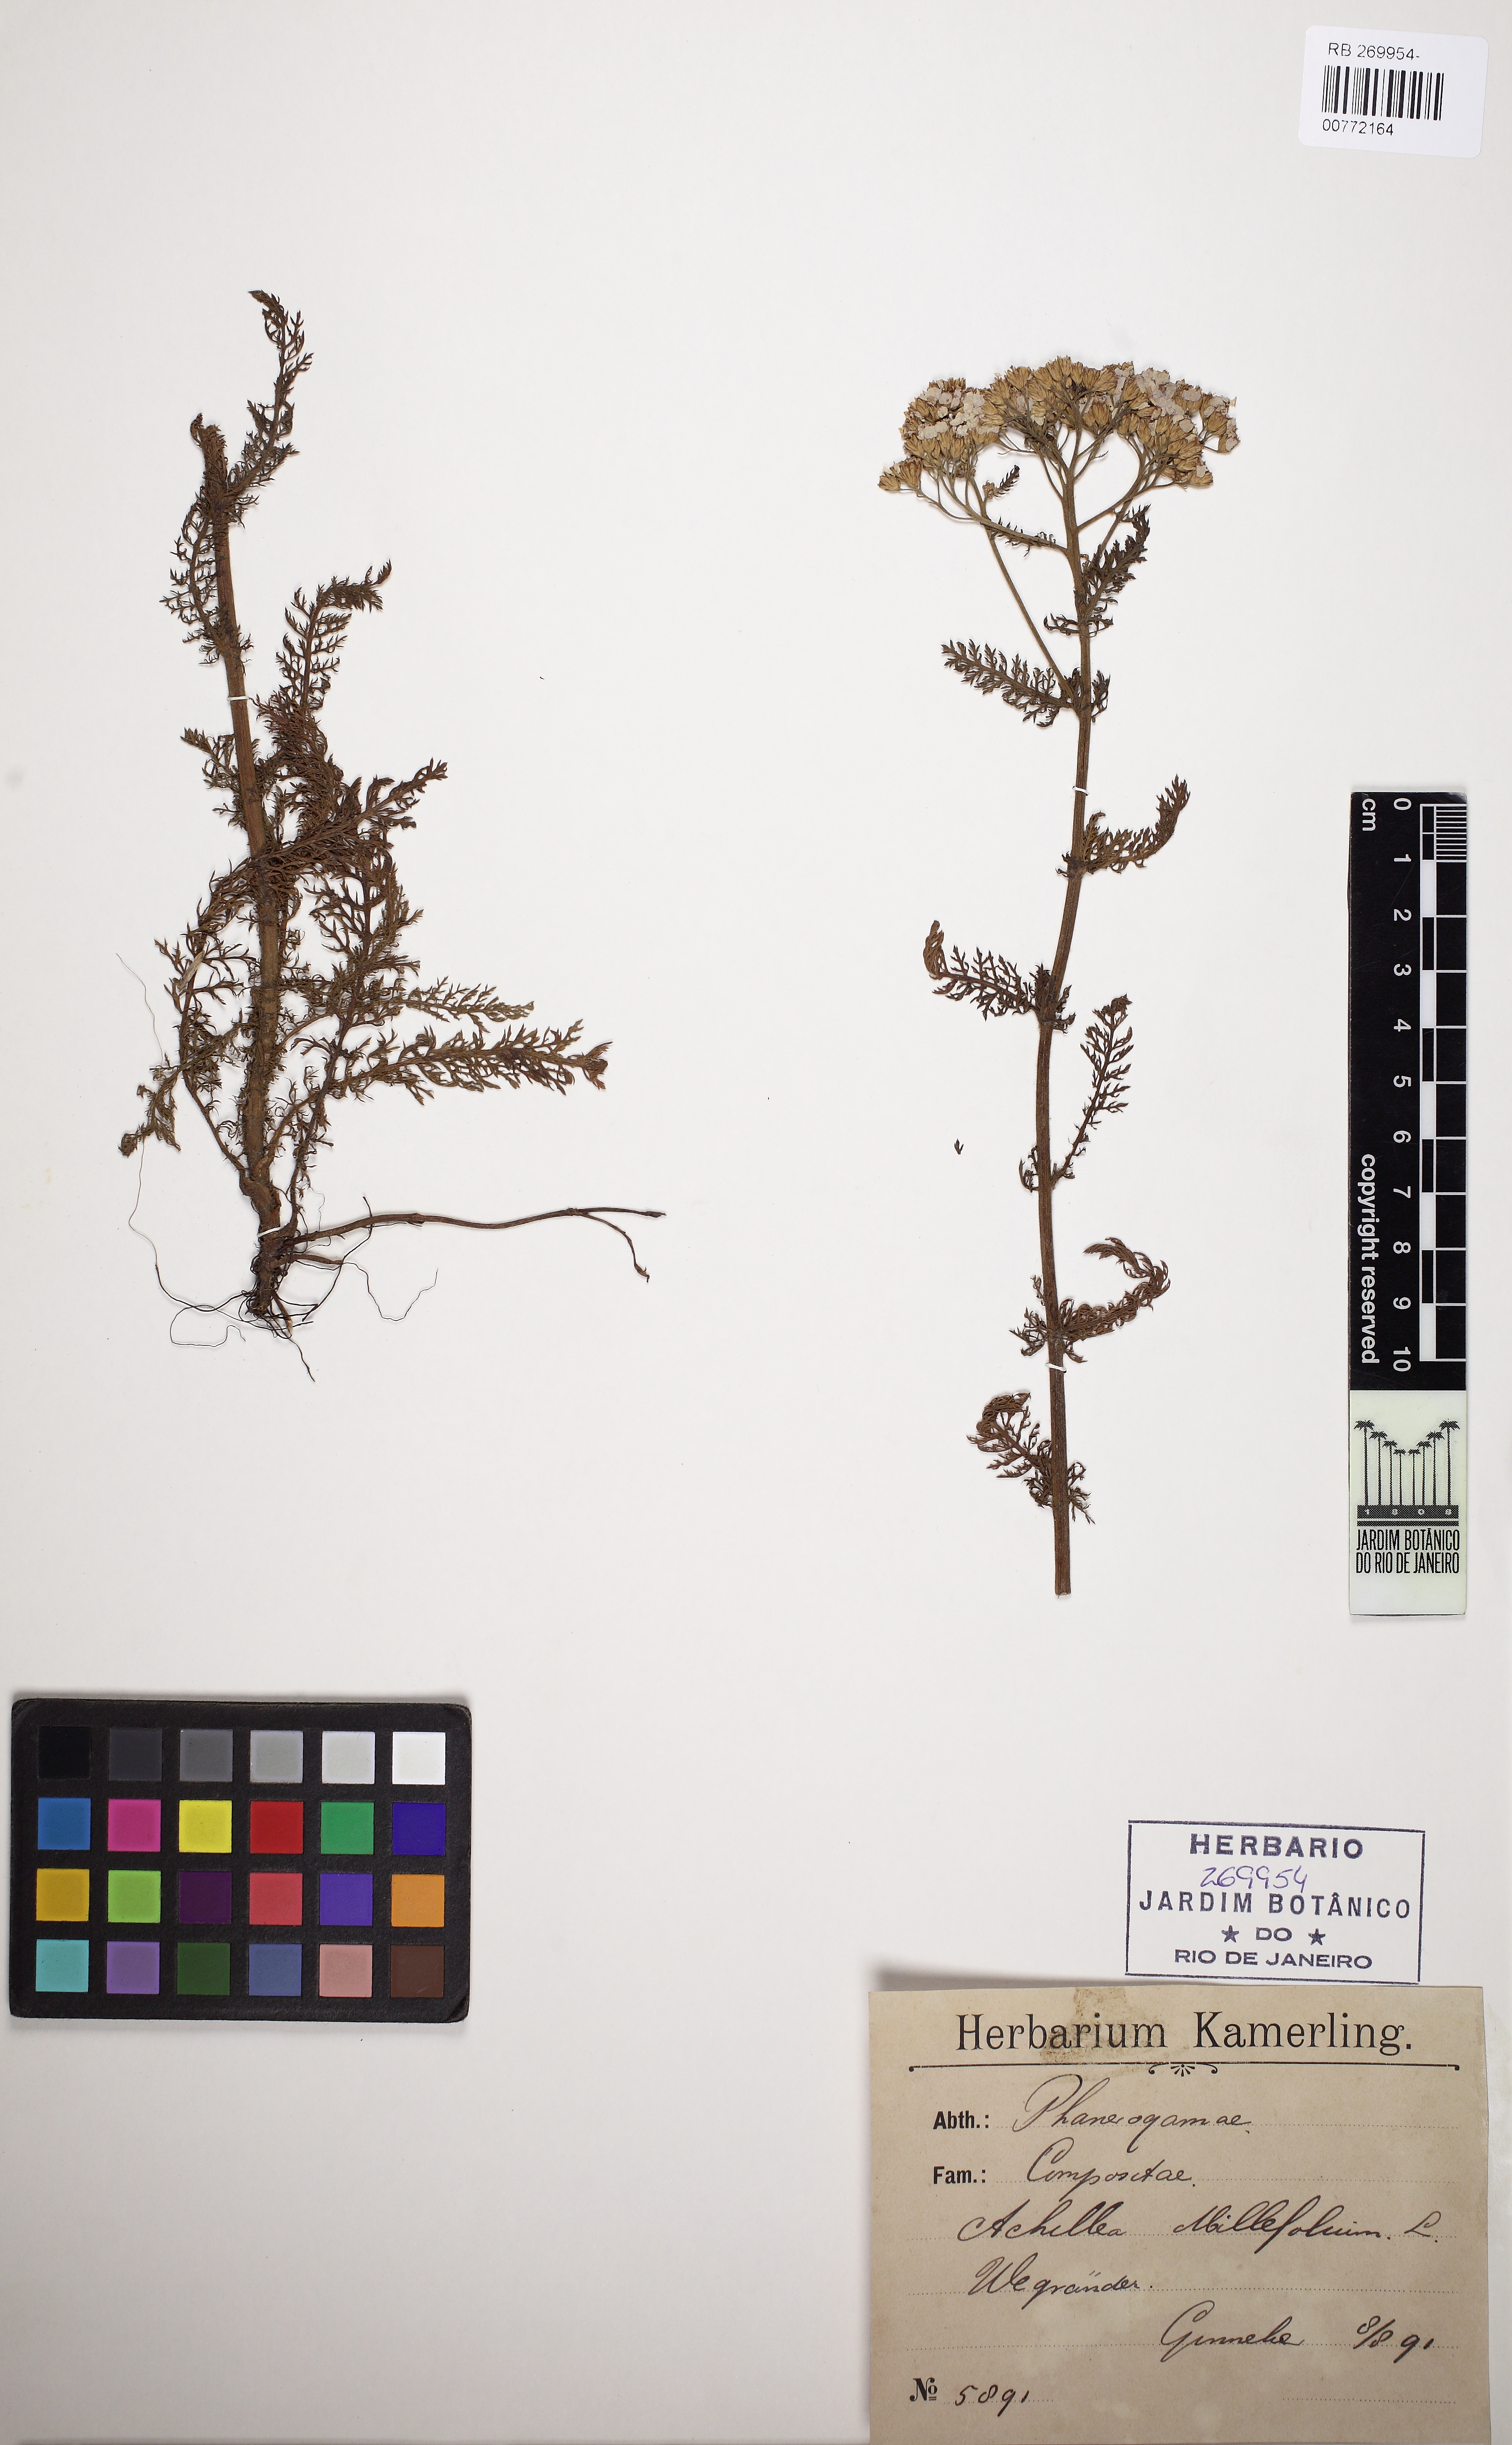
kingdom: Plantae
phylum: Tracheophyta
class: Magnoliopsida
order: Asterales
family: Asteraceae
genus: Achillea
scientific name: Achillea millefolium
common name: Yarrow
